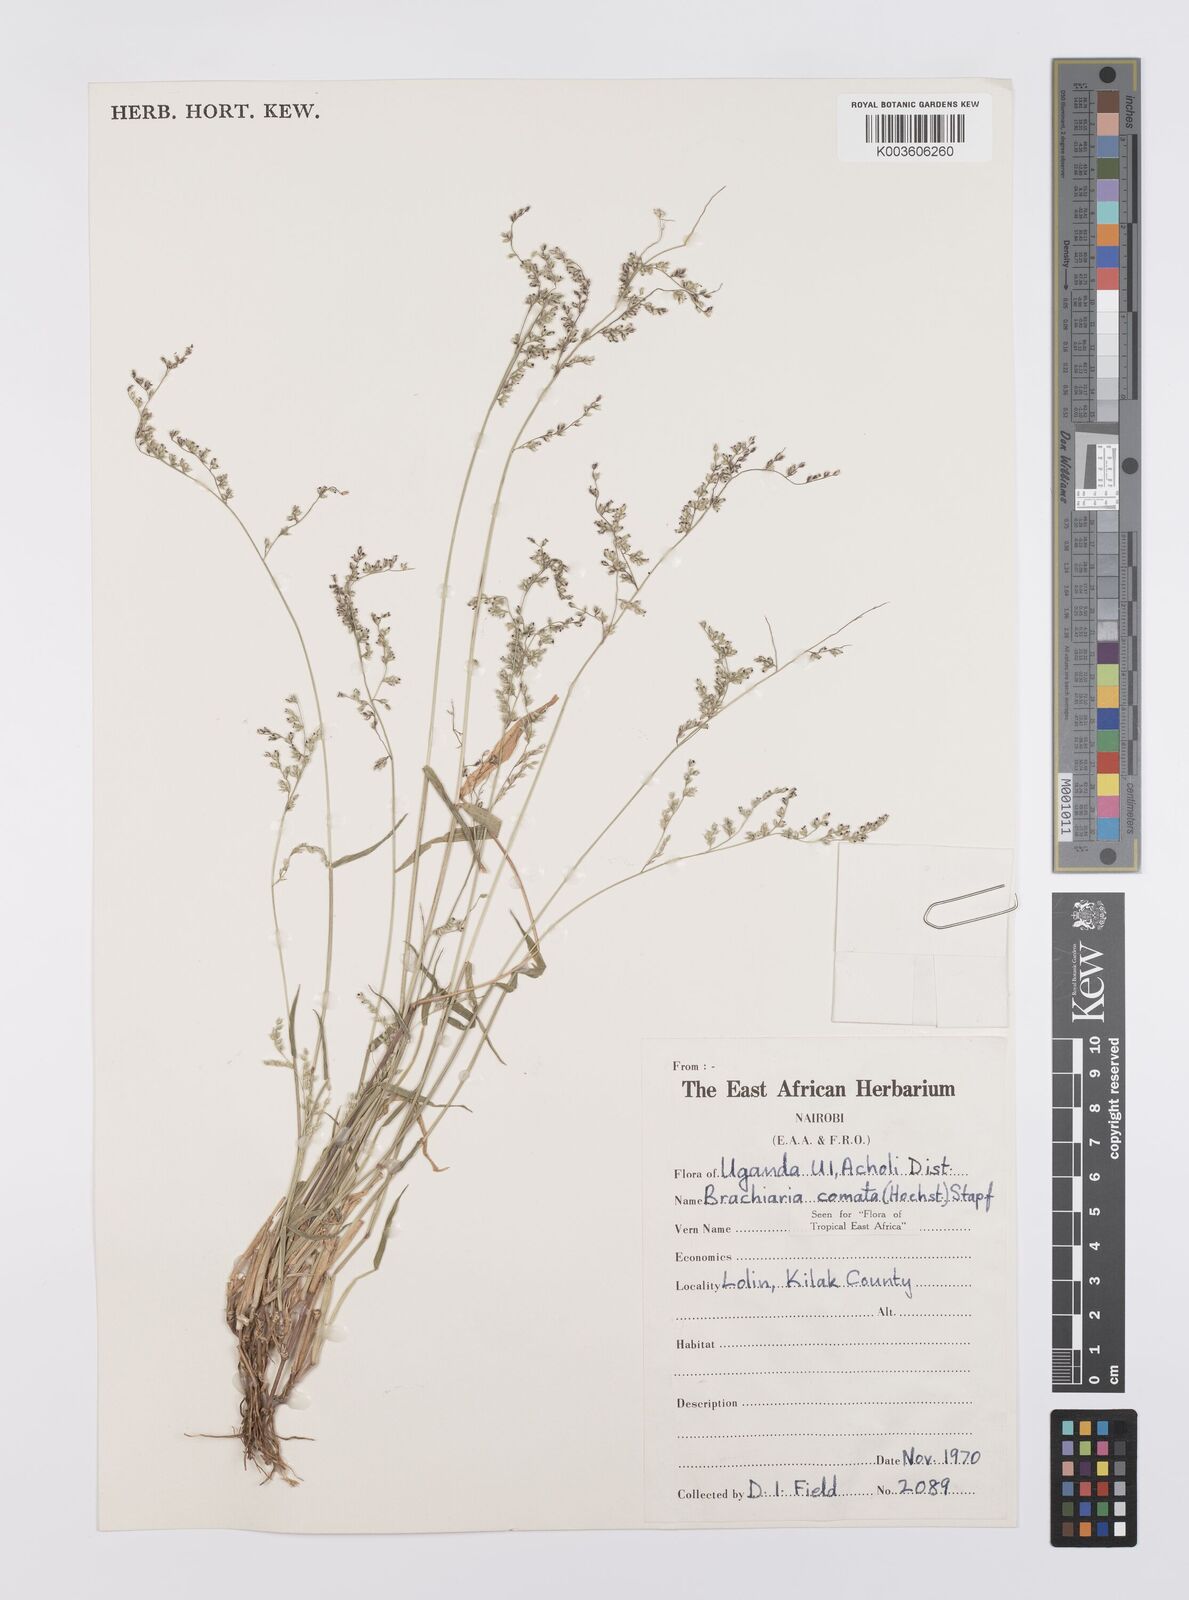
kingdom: Plantae
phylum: Tracheophyta
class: Liliopsida
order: Poales
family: Poaceae
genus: Urochloa
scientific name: Urochloa comata
